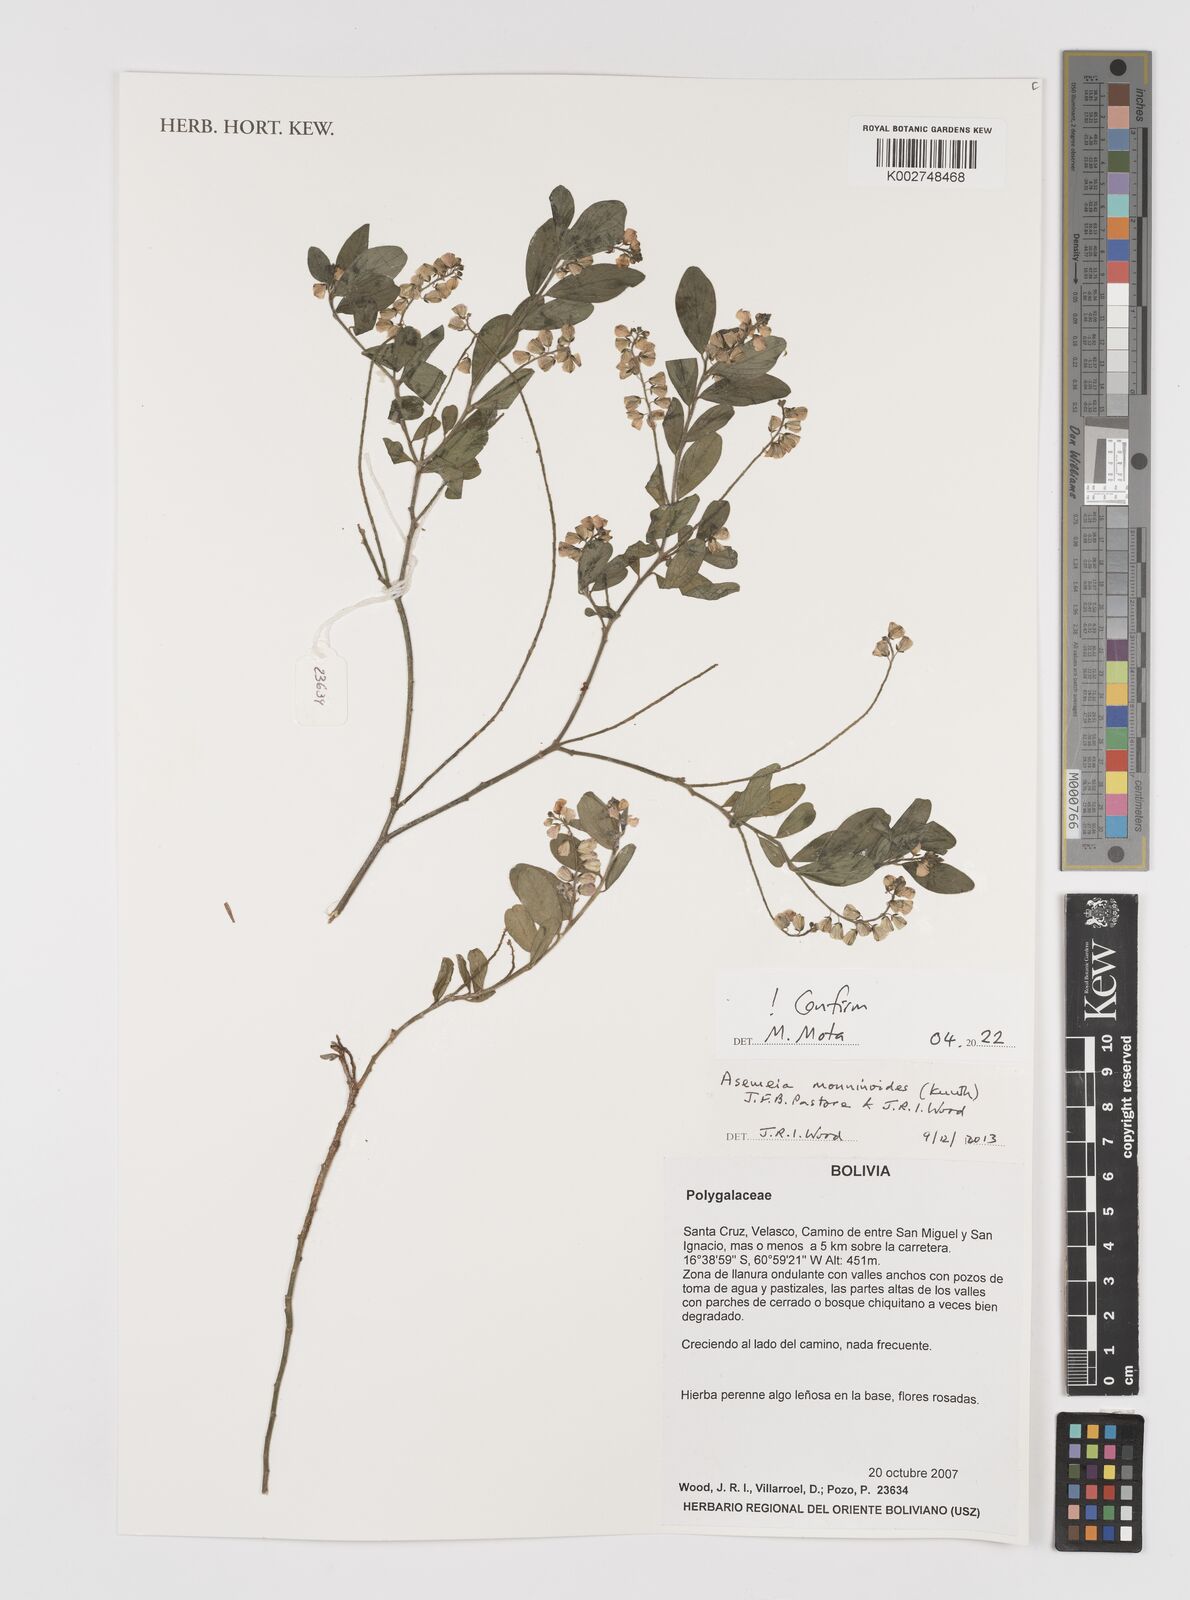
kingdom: Plantae
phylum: Tracheophyta
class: Magnoliopsida
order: Fabales
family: Polygalaceae
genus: Asemeia
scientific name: Asemeia monninoides
